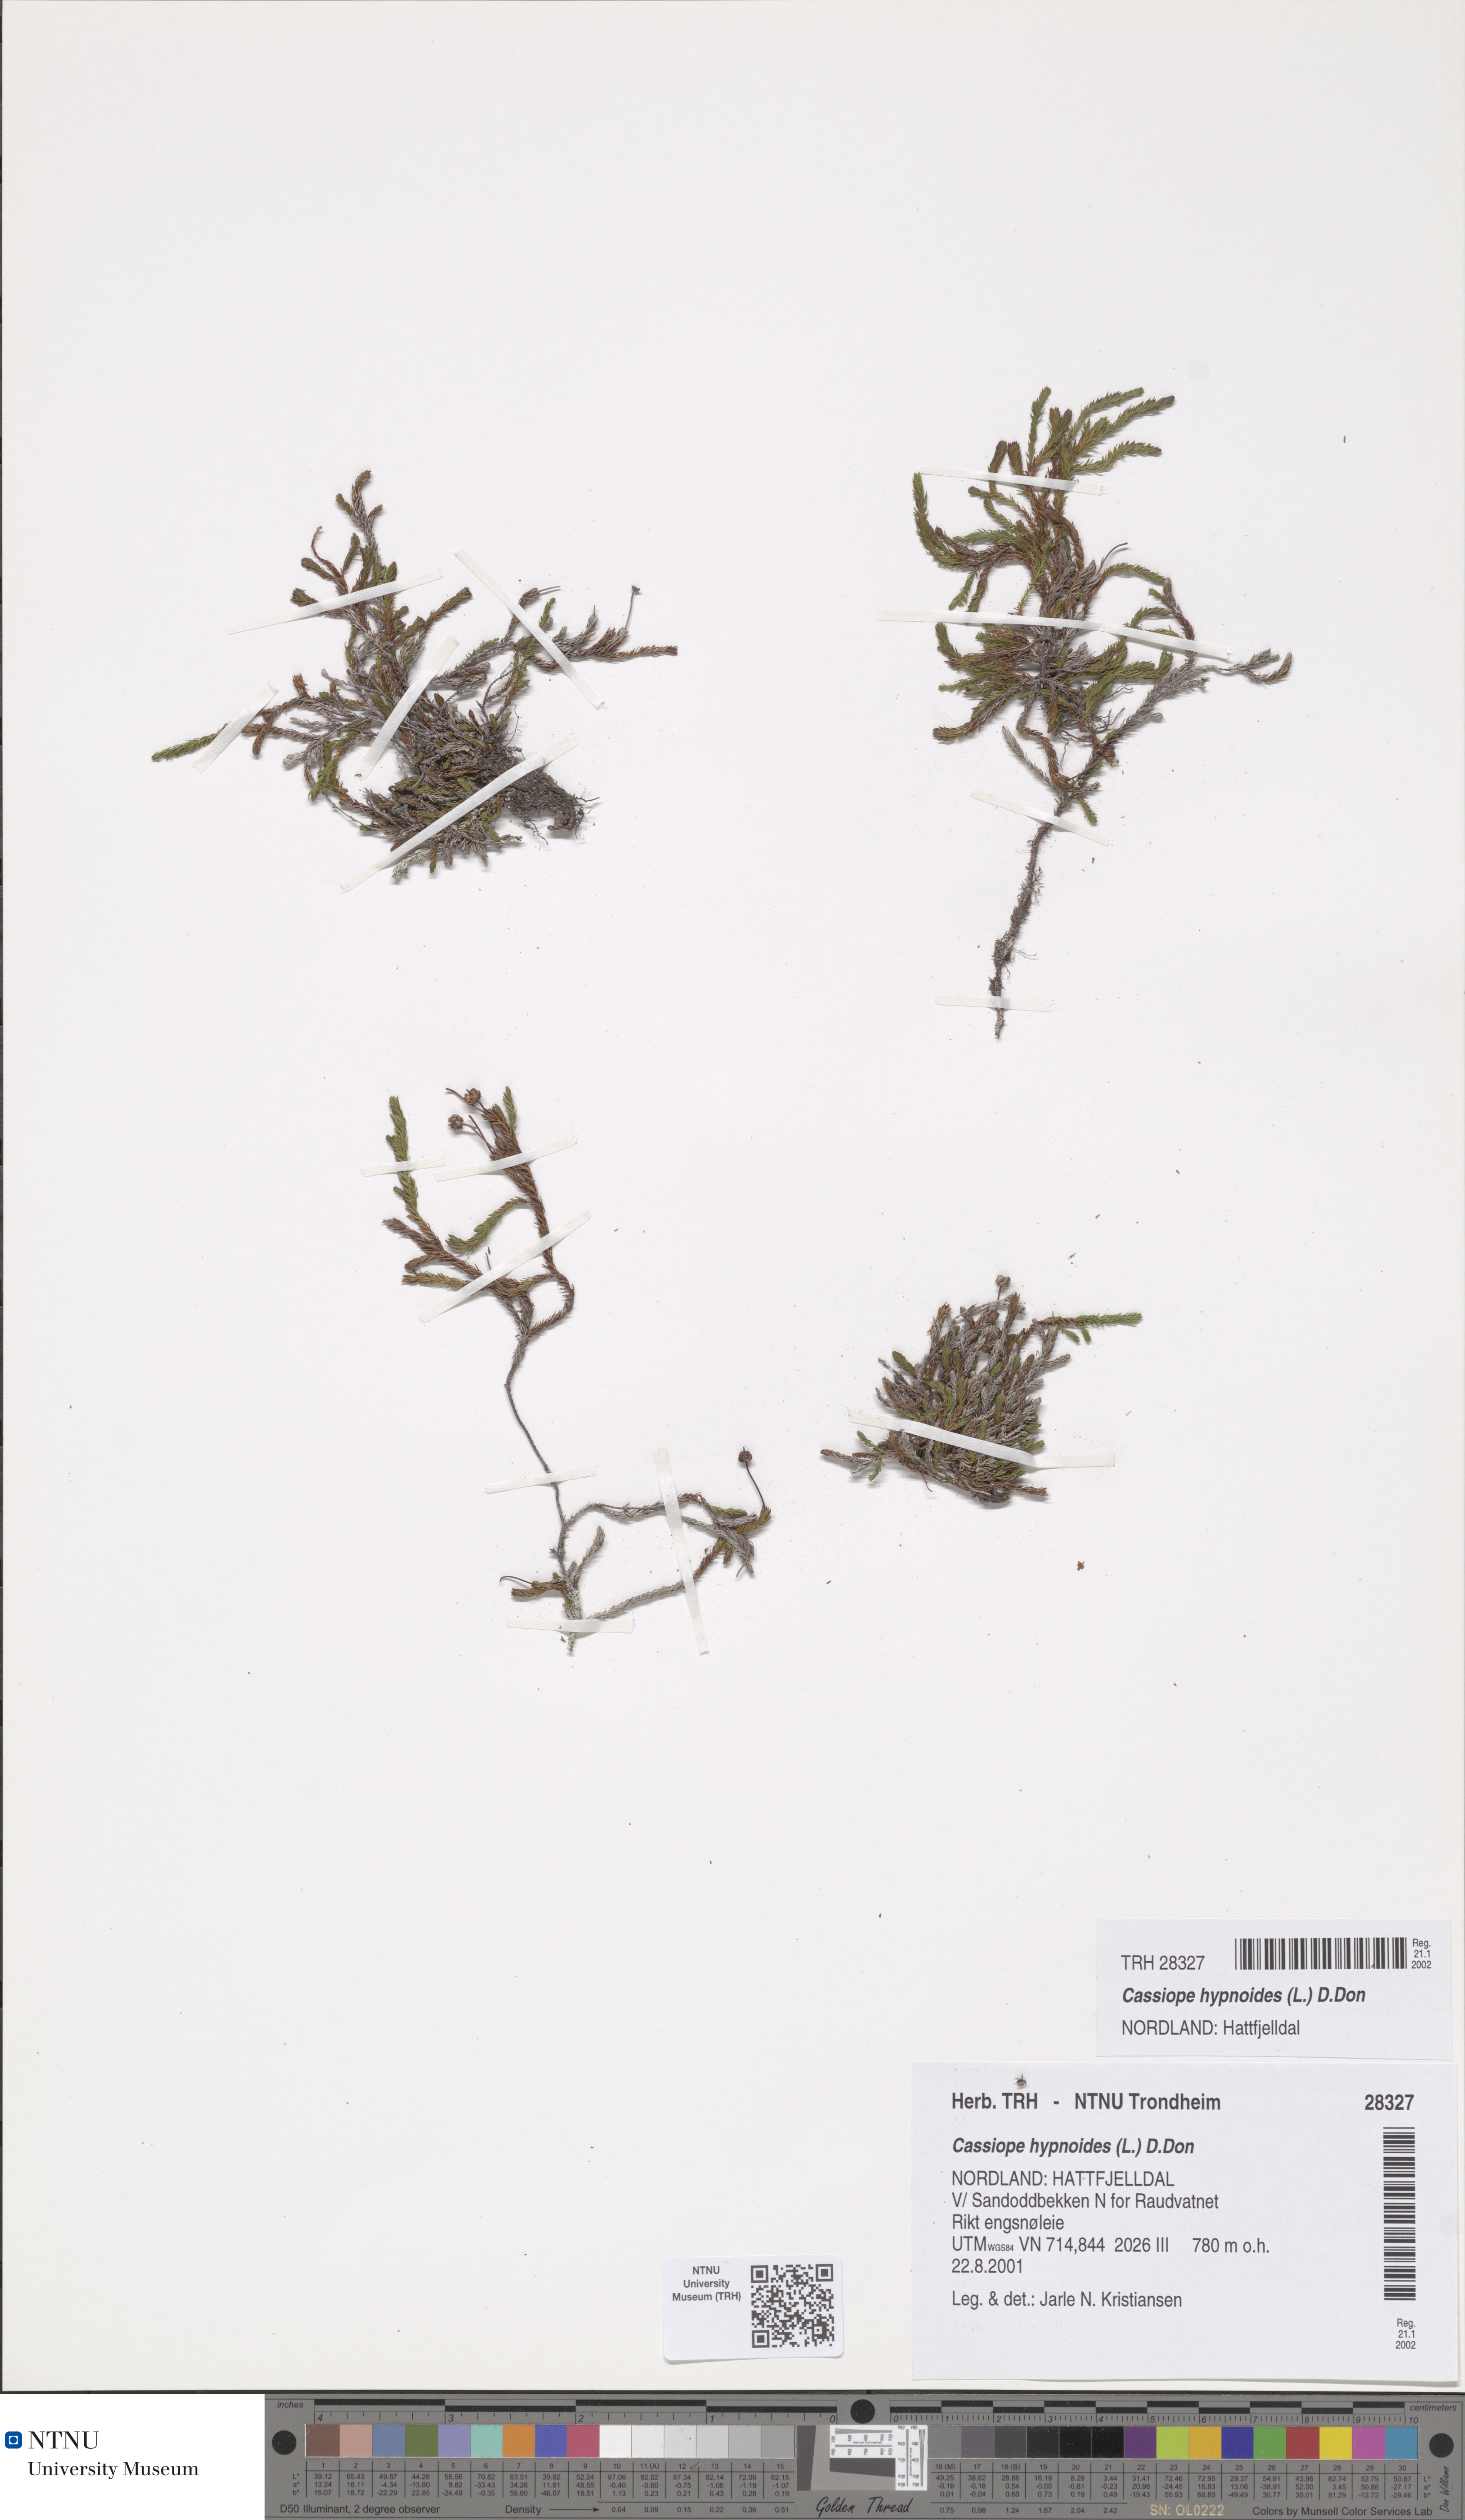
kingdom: Plantae
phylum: Tracheophyta
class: Magnoliopsida
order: Ericales
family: Ericaceae
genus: Harrimanella
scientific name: Harrimanella hypnoides
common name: Moss bell heather
